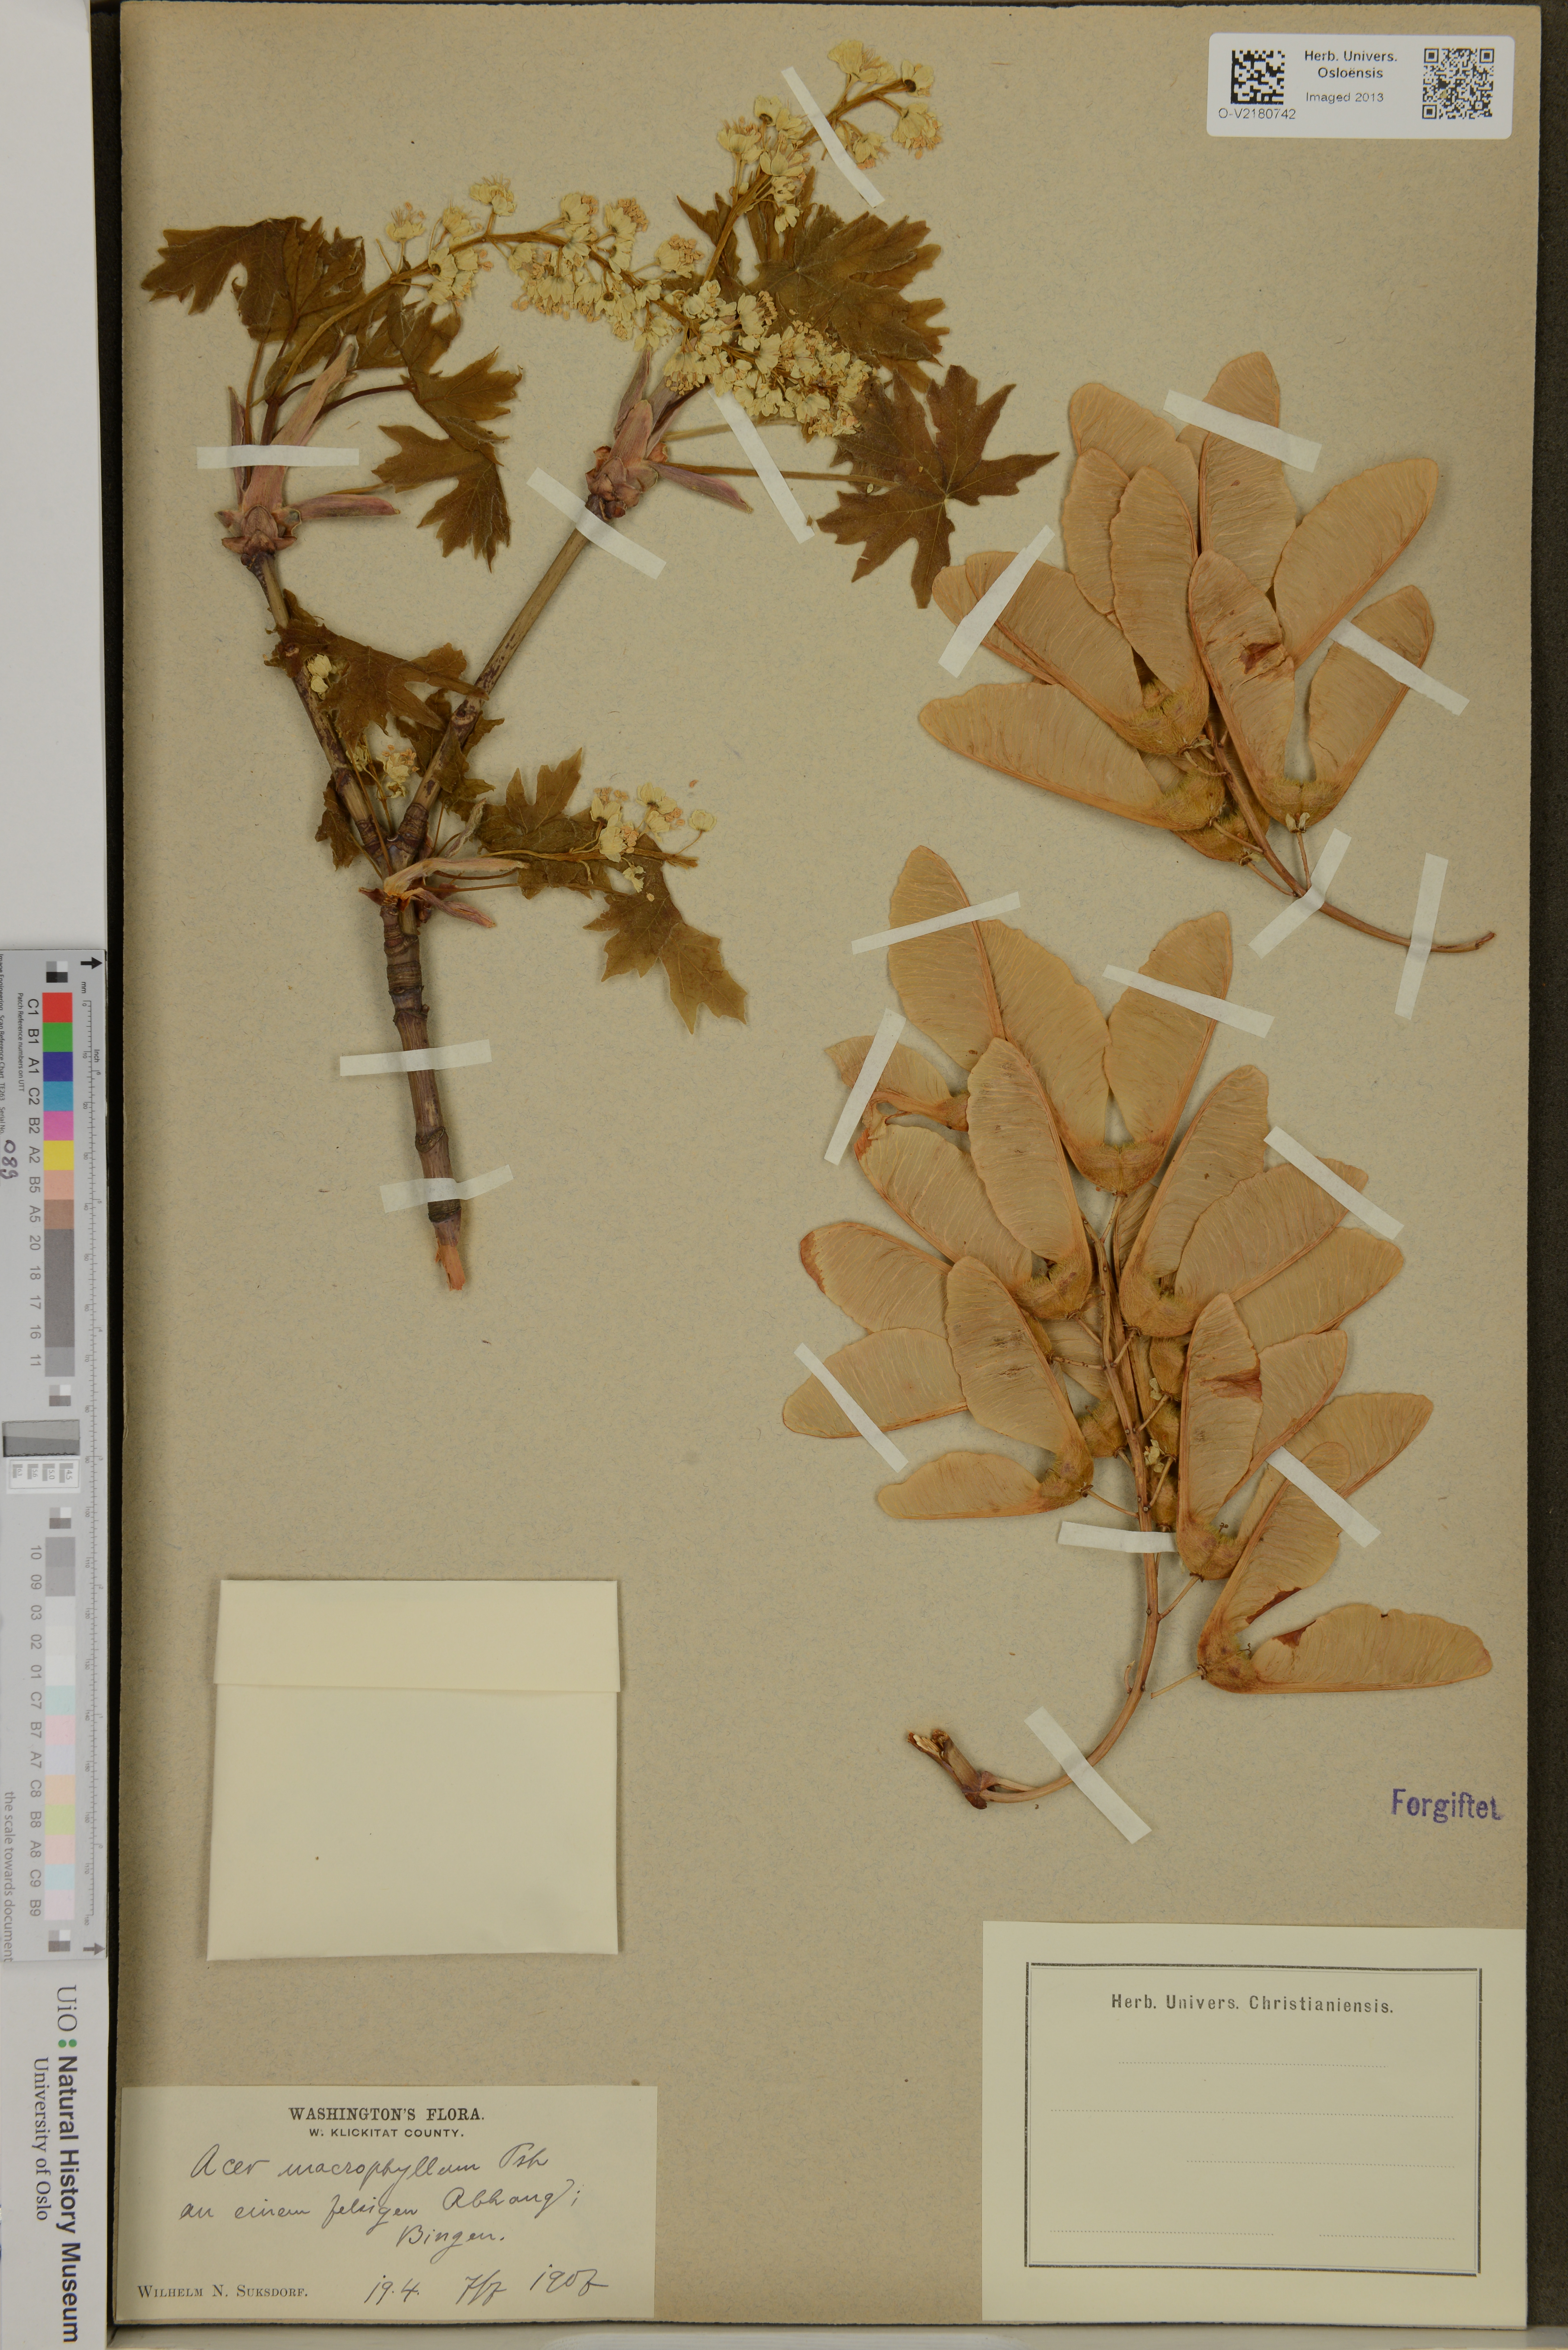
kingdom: Plantae
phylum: Tracheophyta
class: Magnoliopsida
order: Sapindales
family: Sapindaceae
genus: Acer
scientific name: Acer macrophyllum
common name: Oregon maple
